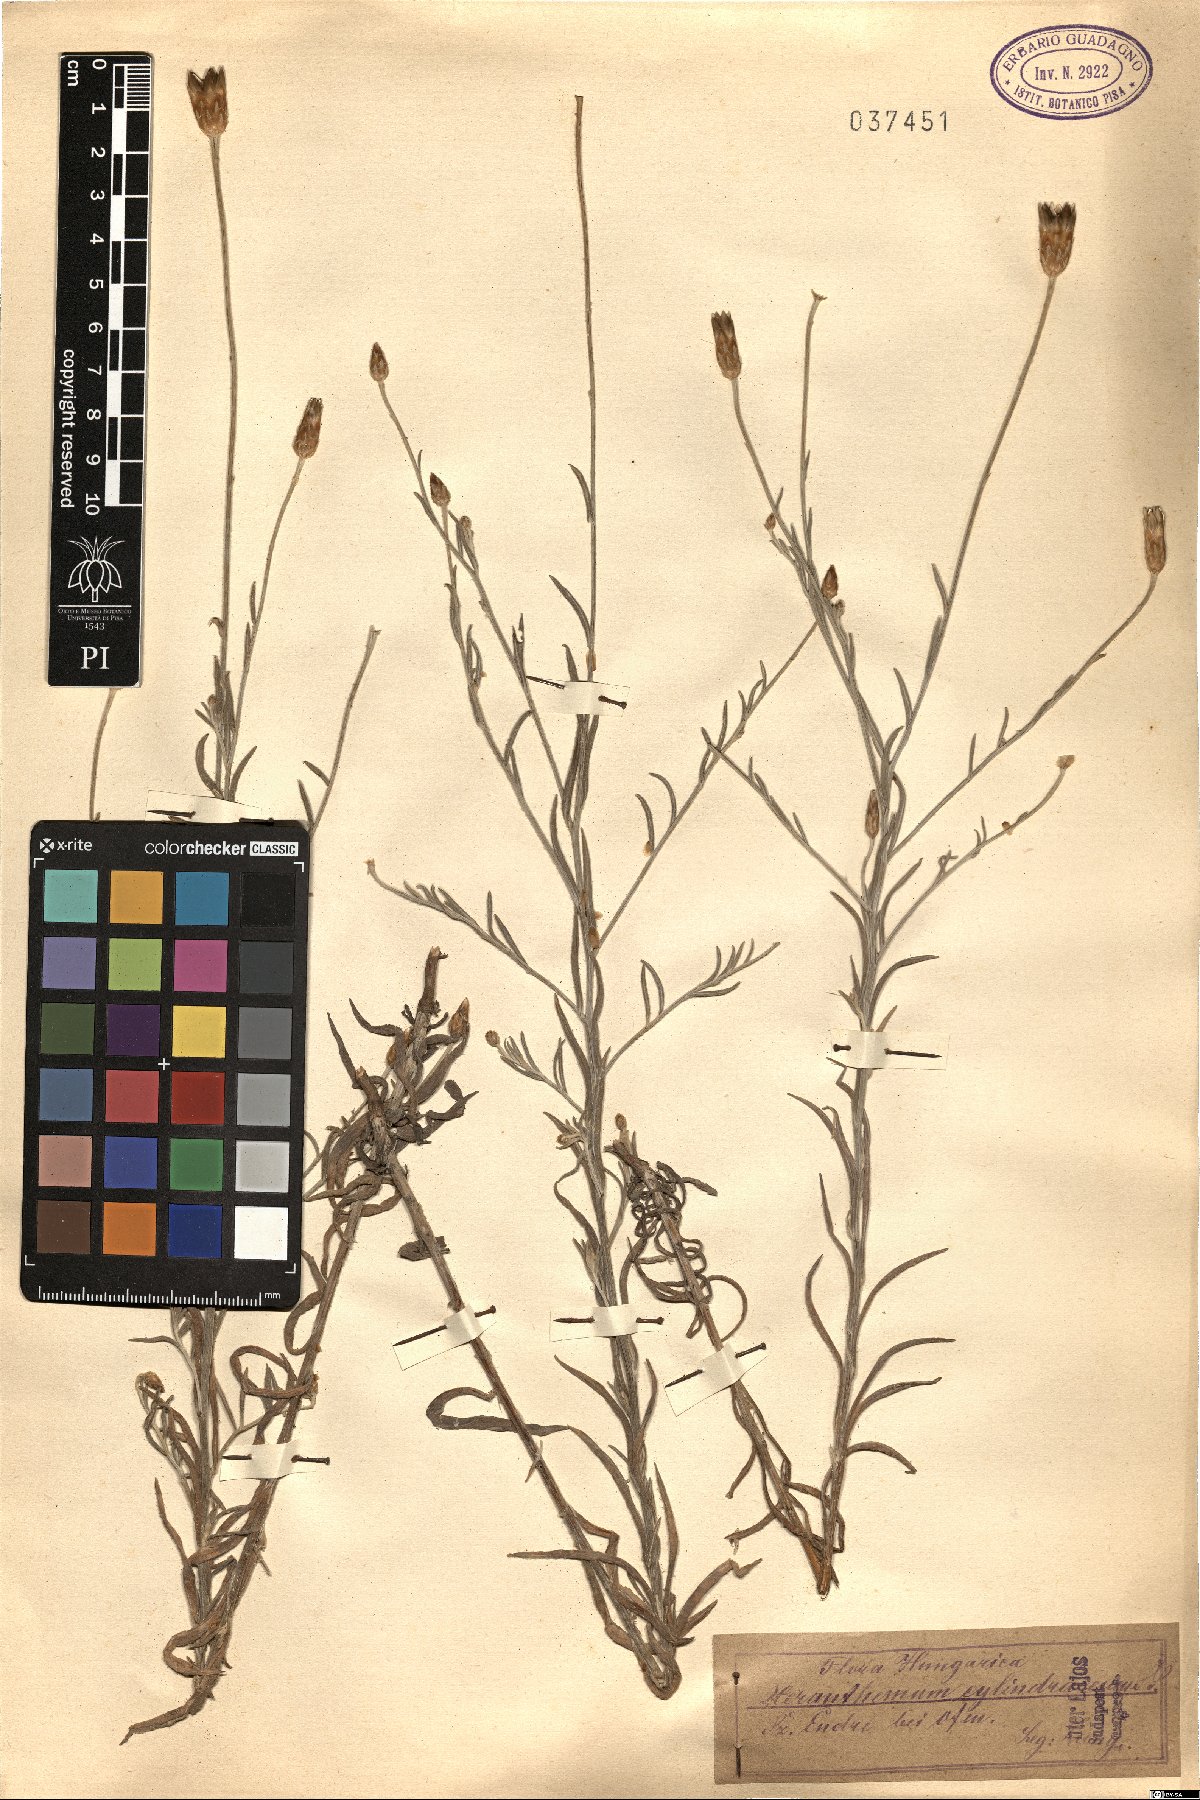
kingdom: Plantae
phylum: Tracheophyta
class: Magnoliopsida
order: Asterales
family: Asteraceae
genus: Xeranthemum
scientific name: Xeranthemum cylindraceum
